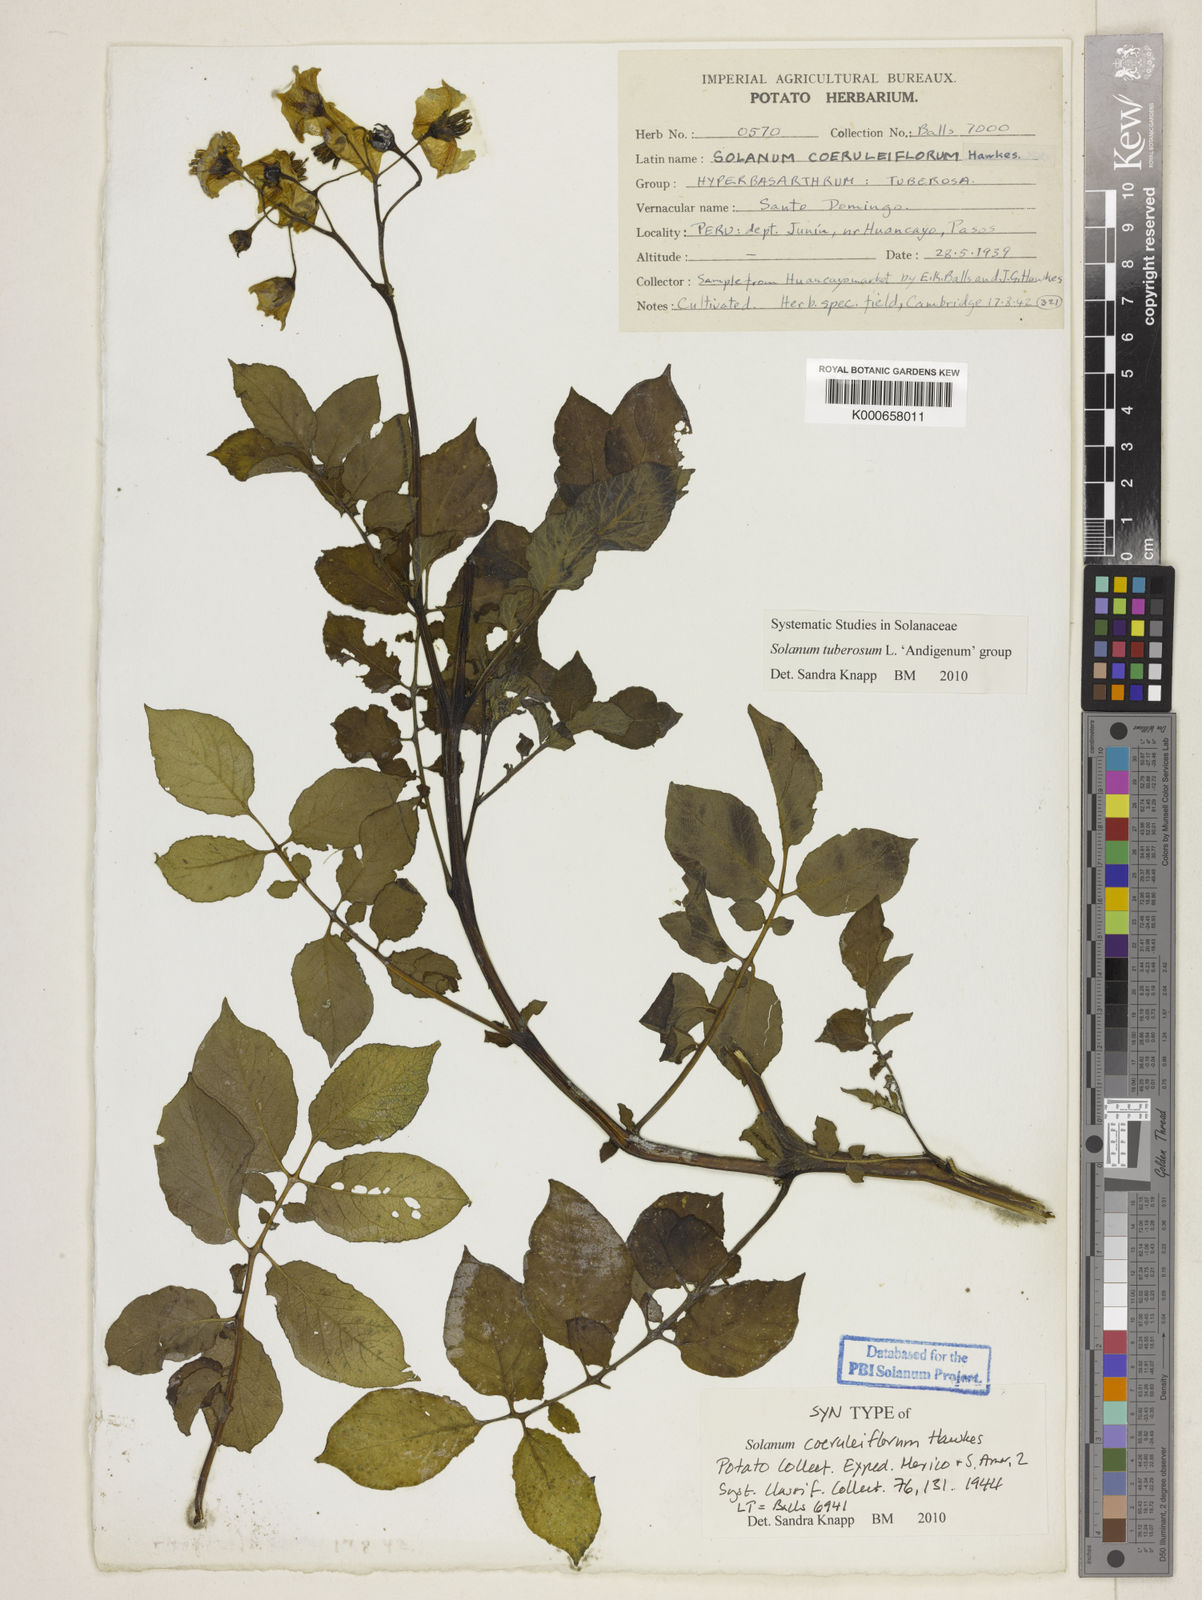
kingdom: Plantae
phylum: Tracheophyta
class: Magnoliopsida
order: Solanales
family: Solanaceae
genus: Solanum
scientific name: Solanum tuberosum
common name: Potato
